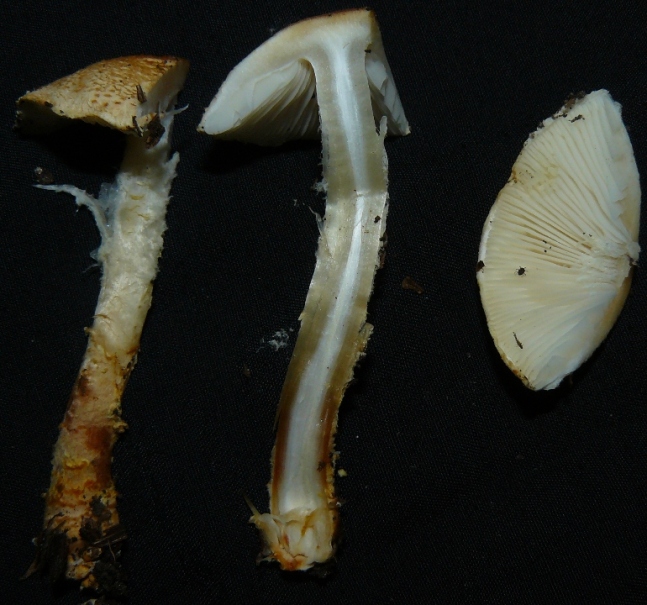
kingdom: Fungi
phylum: Basidiomycota
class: Agaricomycetes
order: Agaricales
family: Agaricaceae
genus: Lepiota
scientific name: Lepiota cristata
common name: stinkende parasolhat
